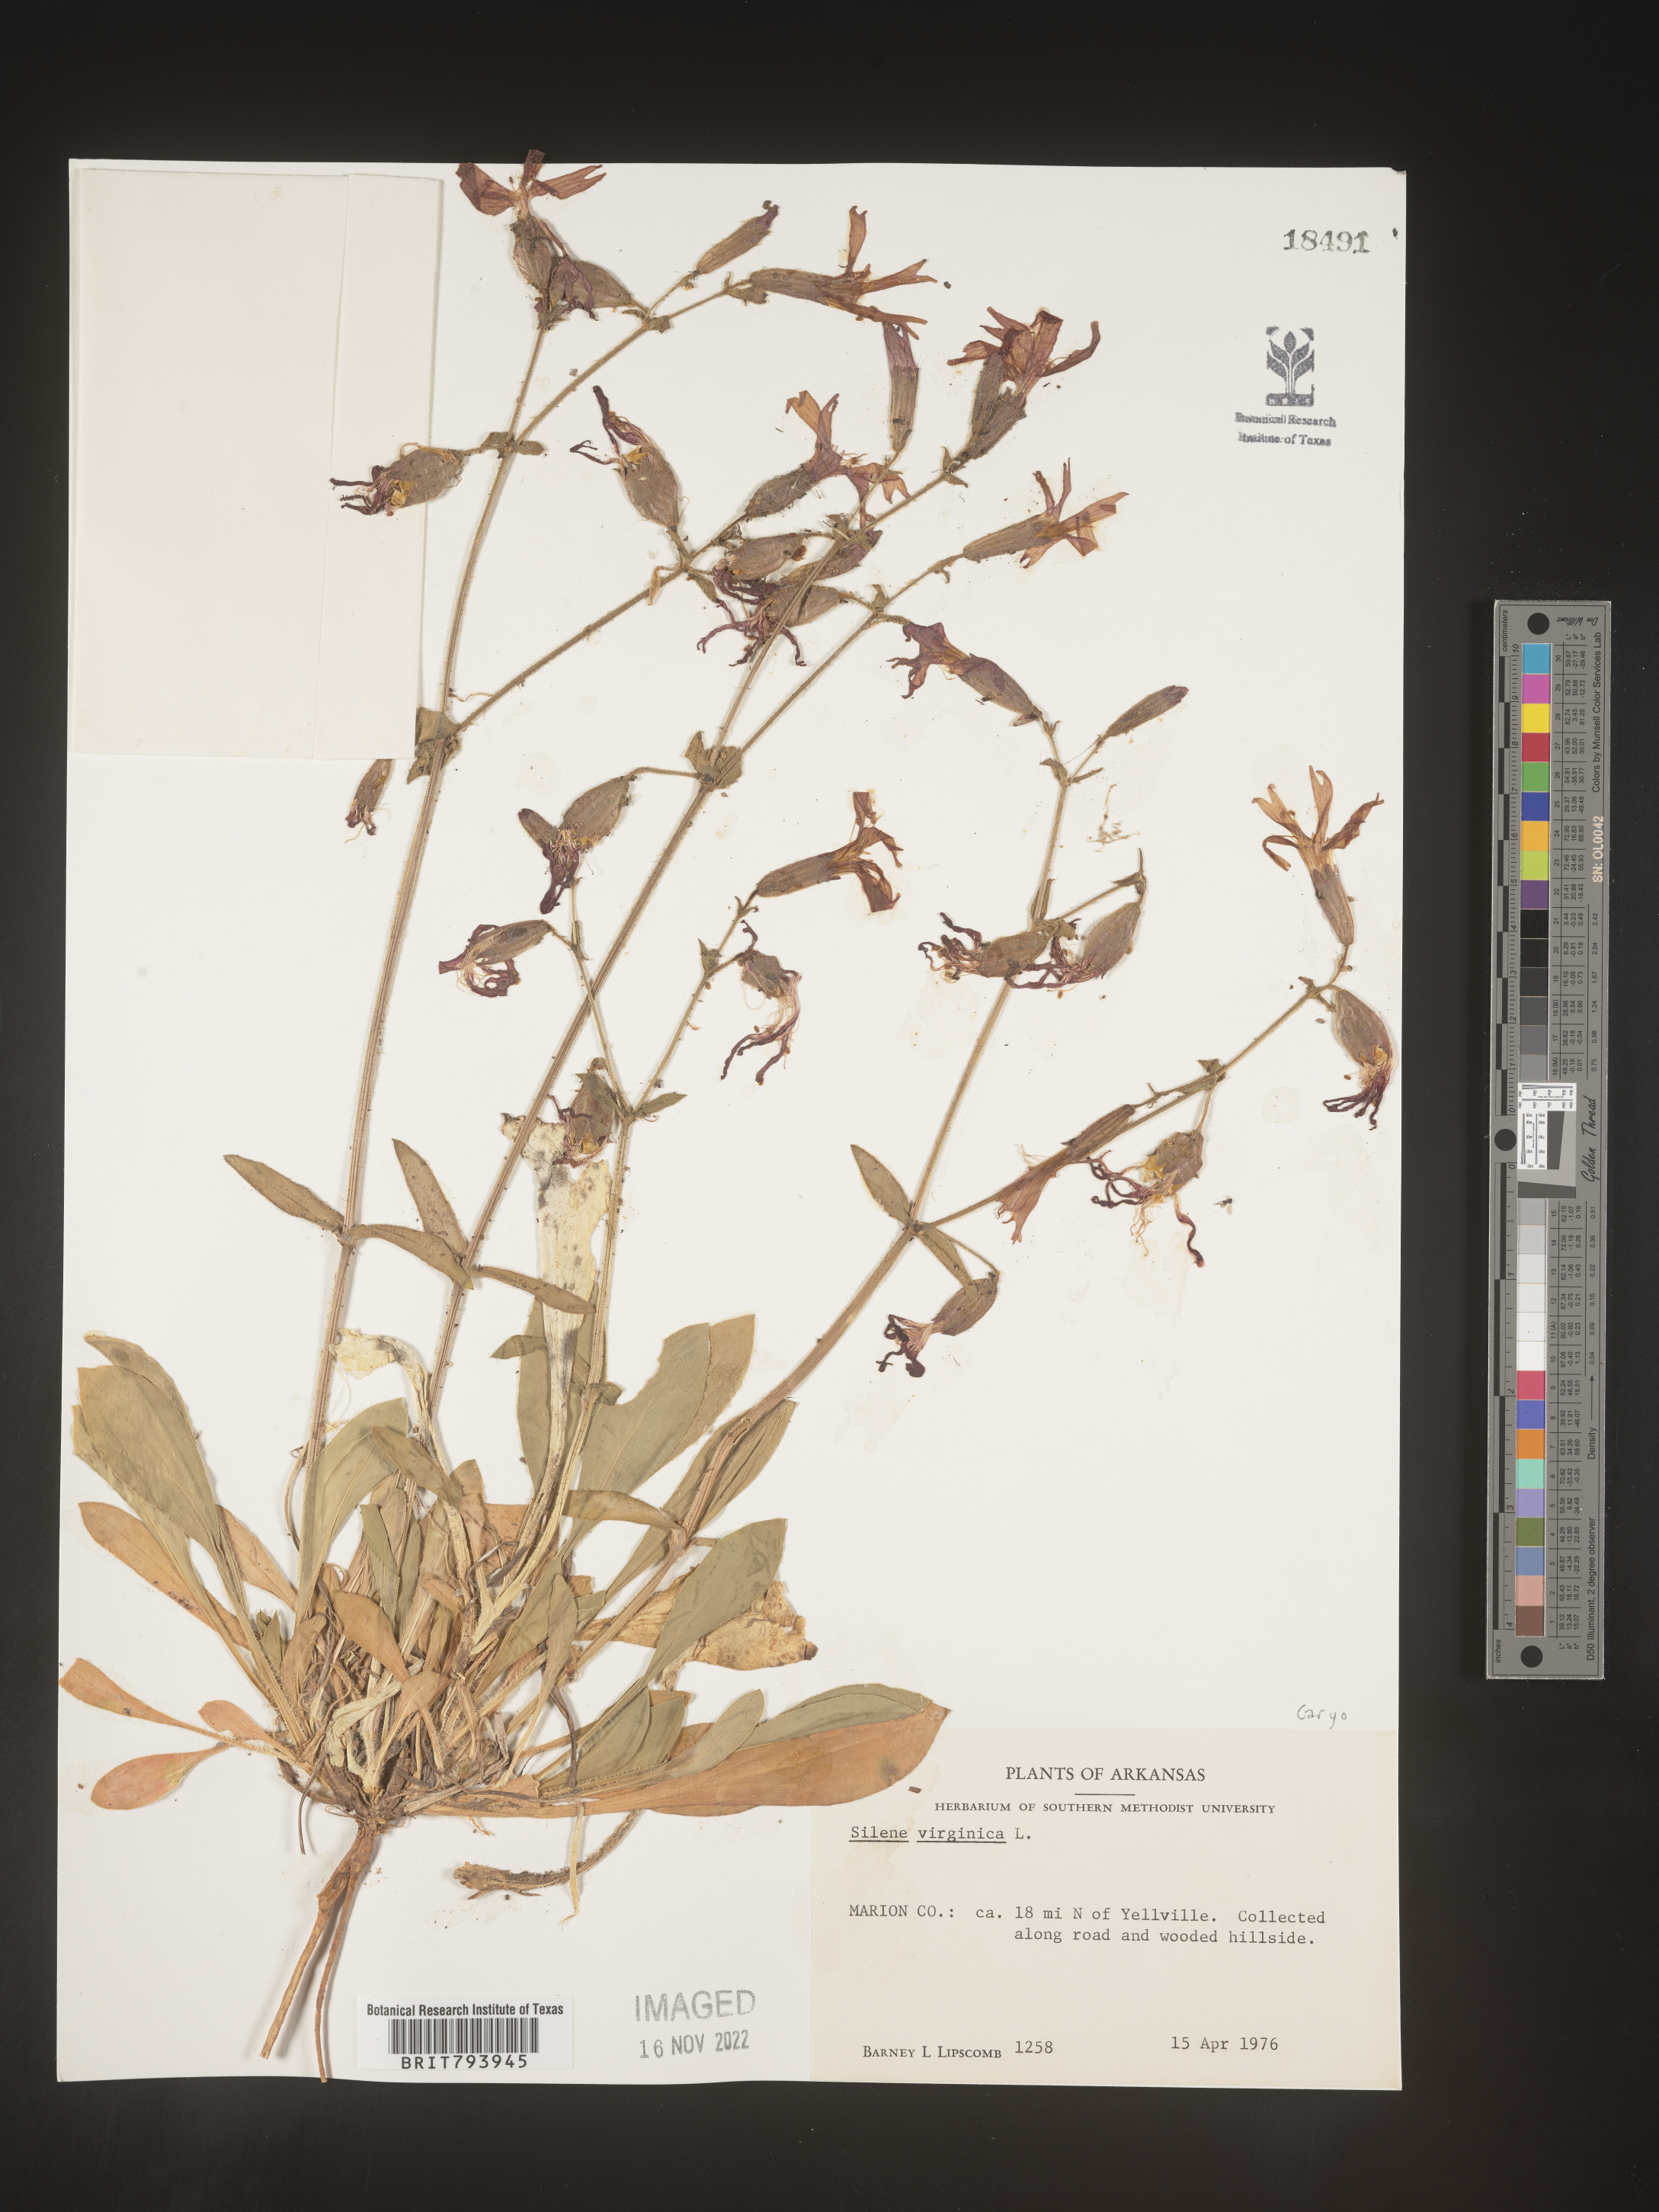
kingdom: Plantae
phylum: Tracheophyta
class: Magnoliopsida
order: Caryophyllales
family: Caryophyllaceae
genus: Silene
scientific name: Silene virginica
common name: Fire-pink
